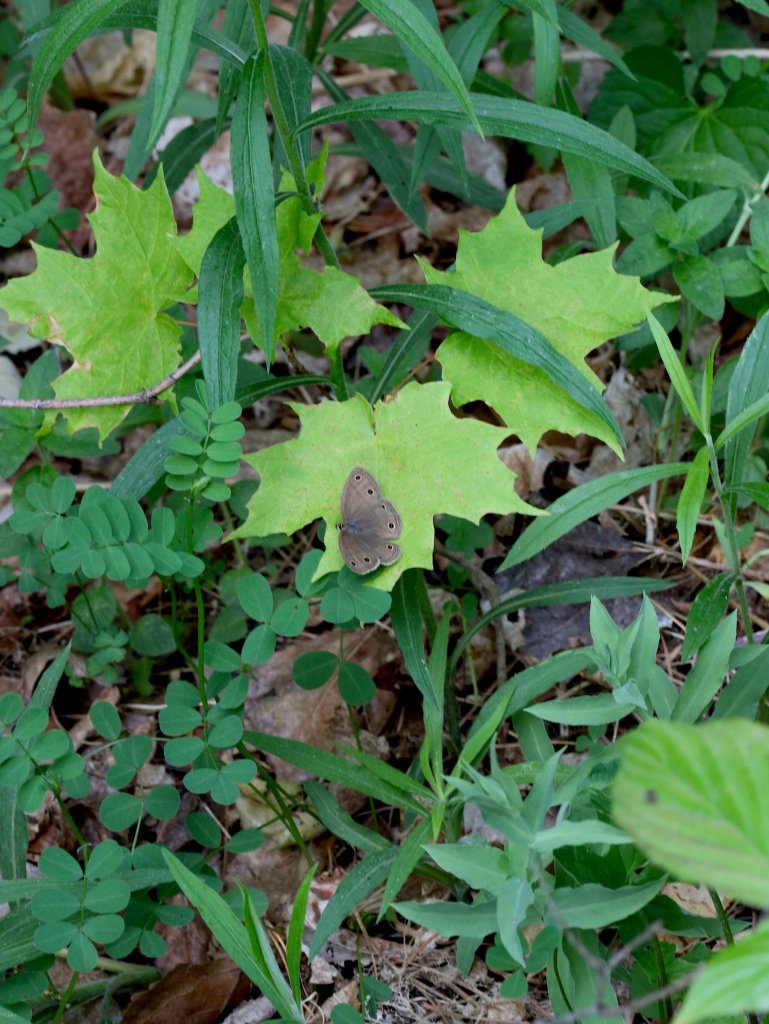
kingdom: Animalia
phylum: Arthropoda
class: Insecta
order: Lepidoptera
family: Nymphalidae
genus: Euptychia
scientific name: Euptychia cymela
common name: Little Wood Satyr
